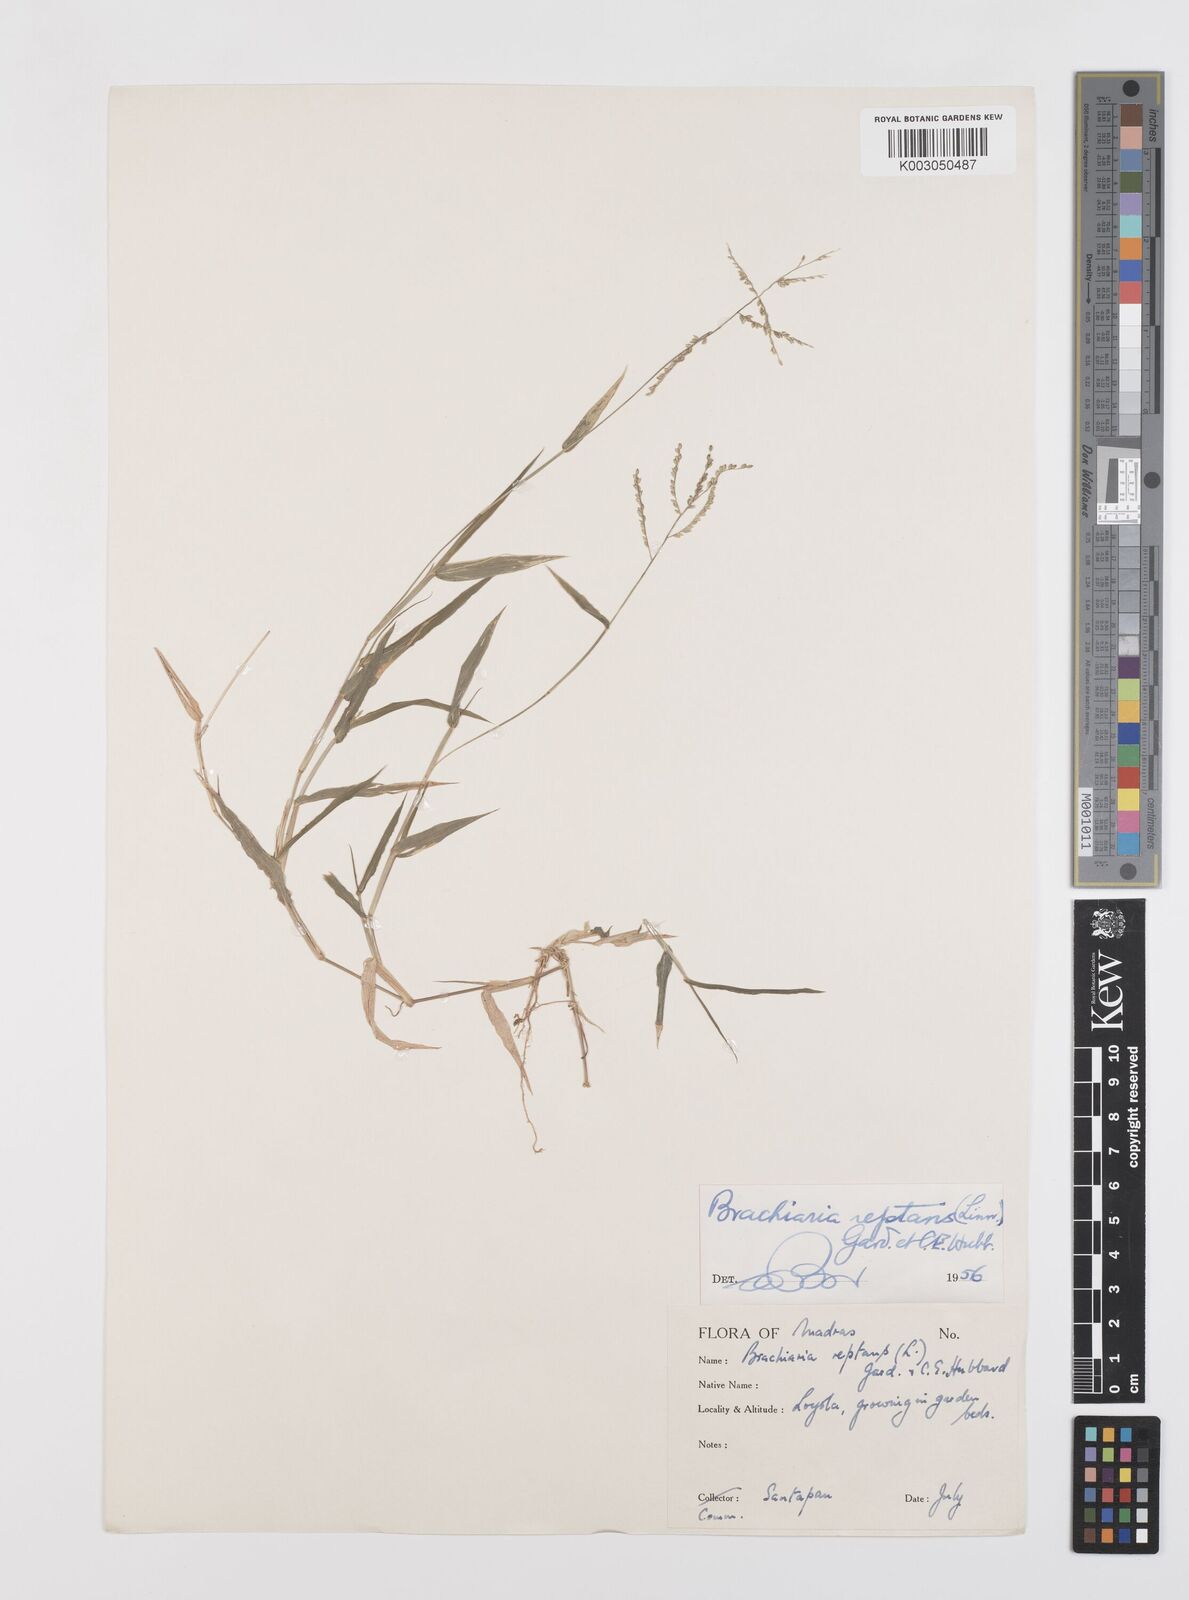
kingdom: Plantae
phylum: Tracheophyta
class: Liliopsida
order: Poales
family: Poaceae
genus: Urochloa
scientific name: Urochloa reptans
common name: Sprawling signalgrass
